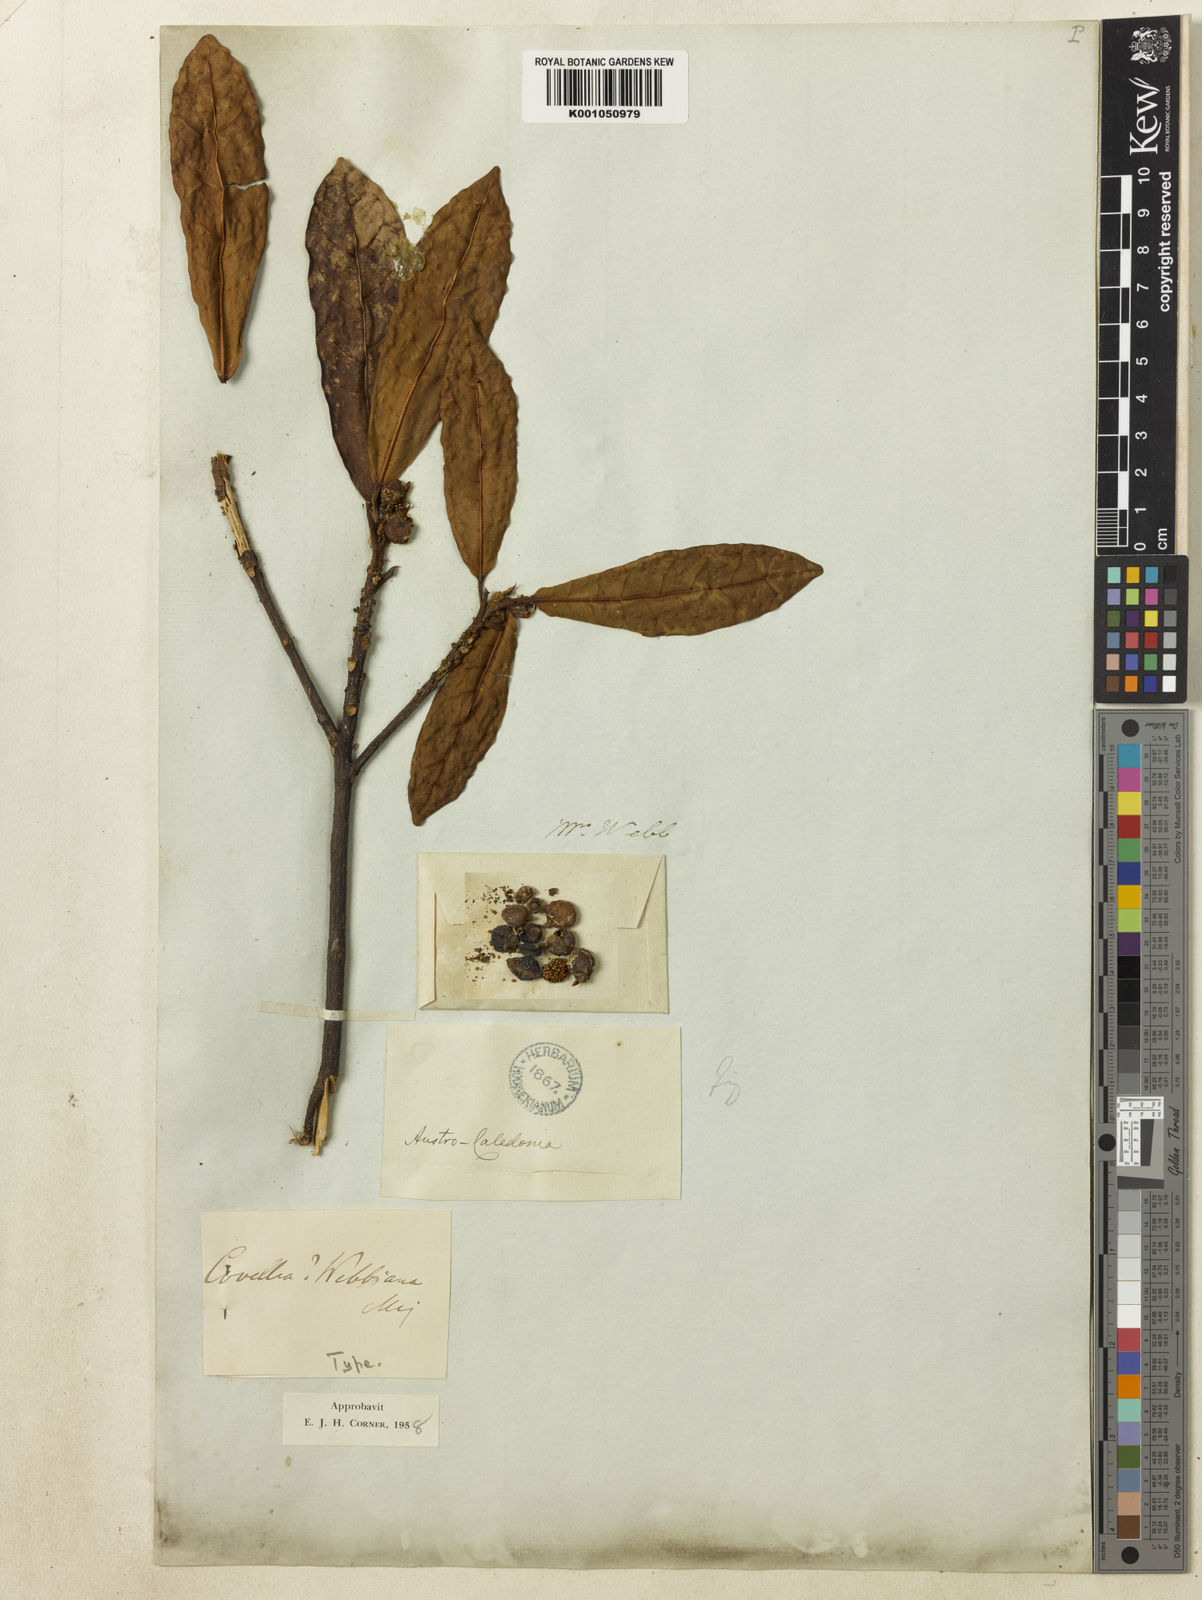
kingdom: Plantae
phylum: Tracheophyta
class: Magnoliopsida
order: Rosales
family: Moraceae
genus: Ficus
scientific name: Ficus webbiana
